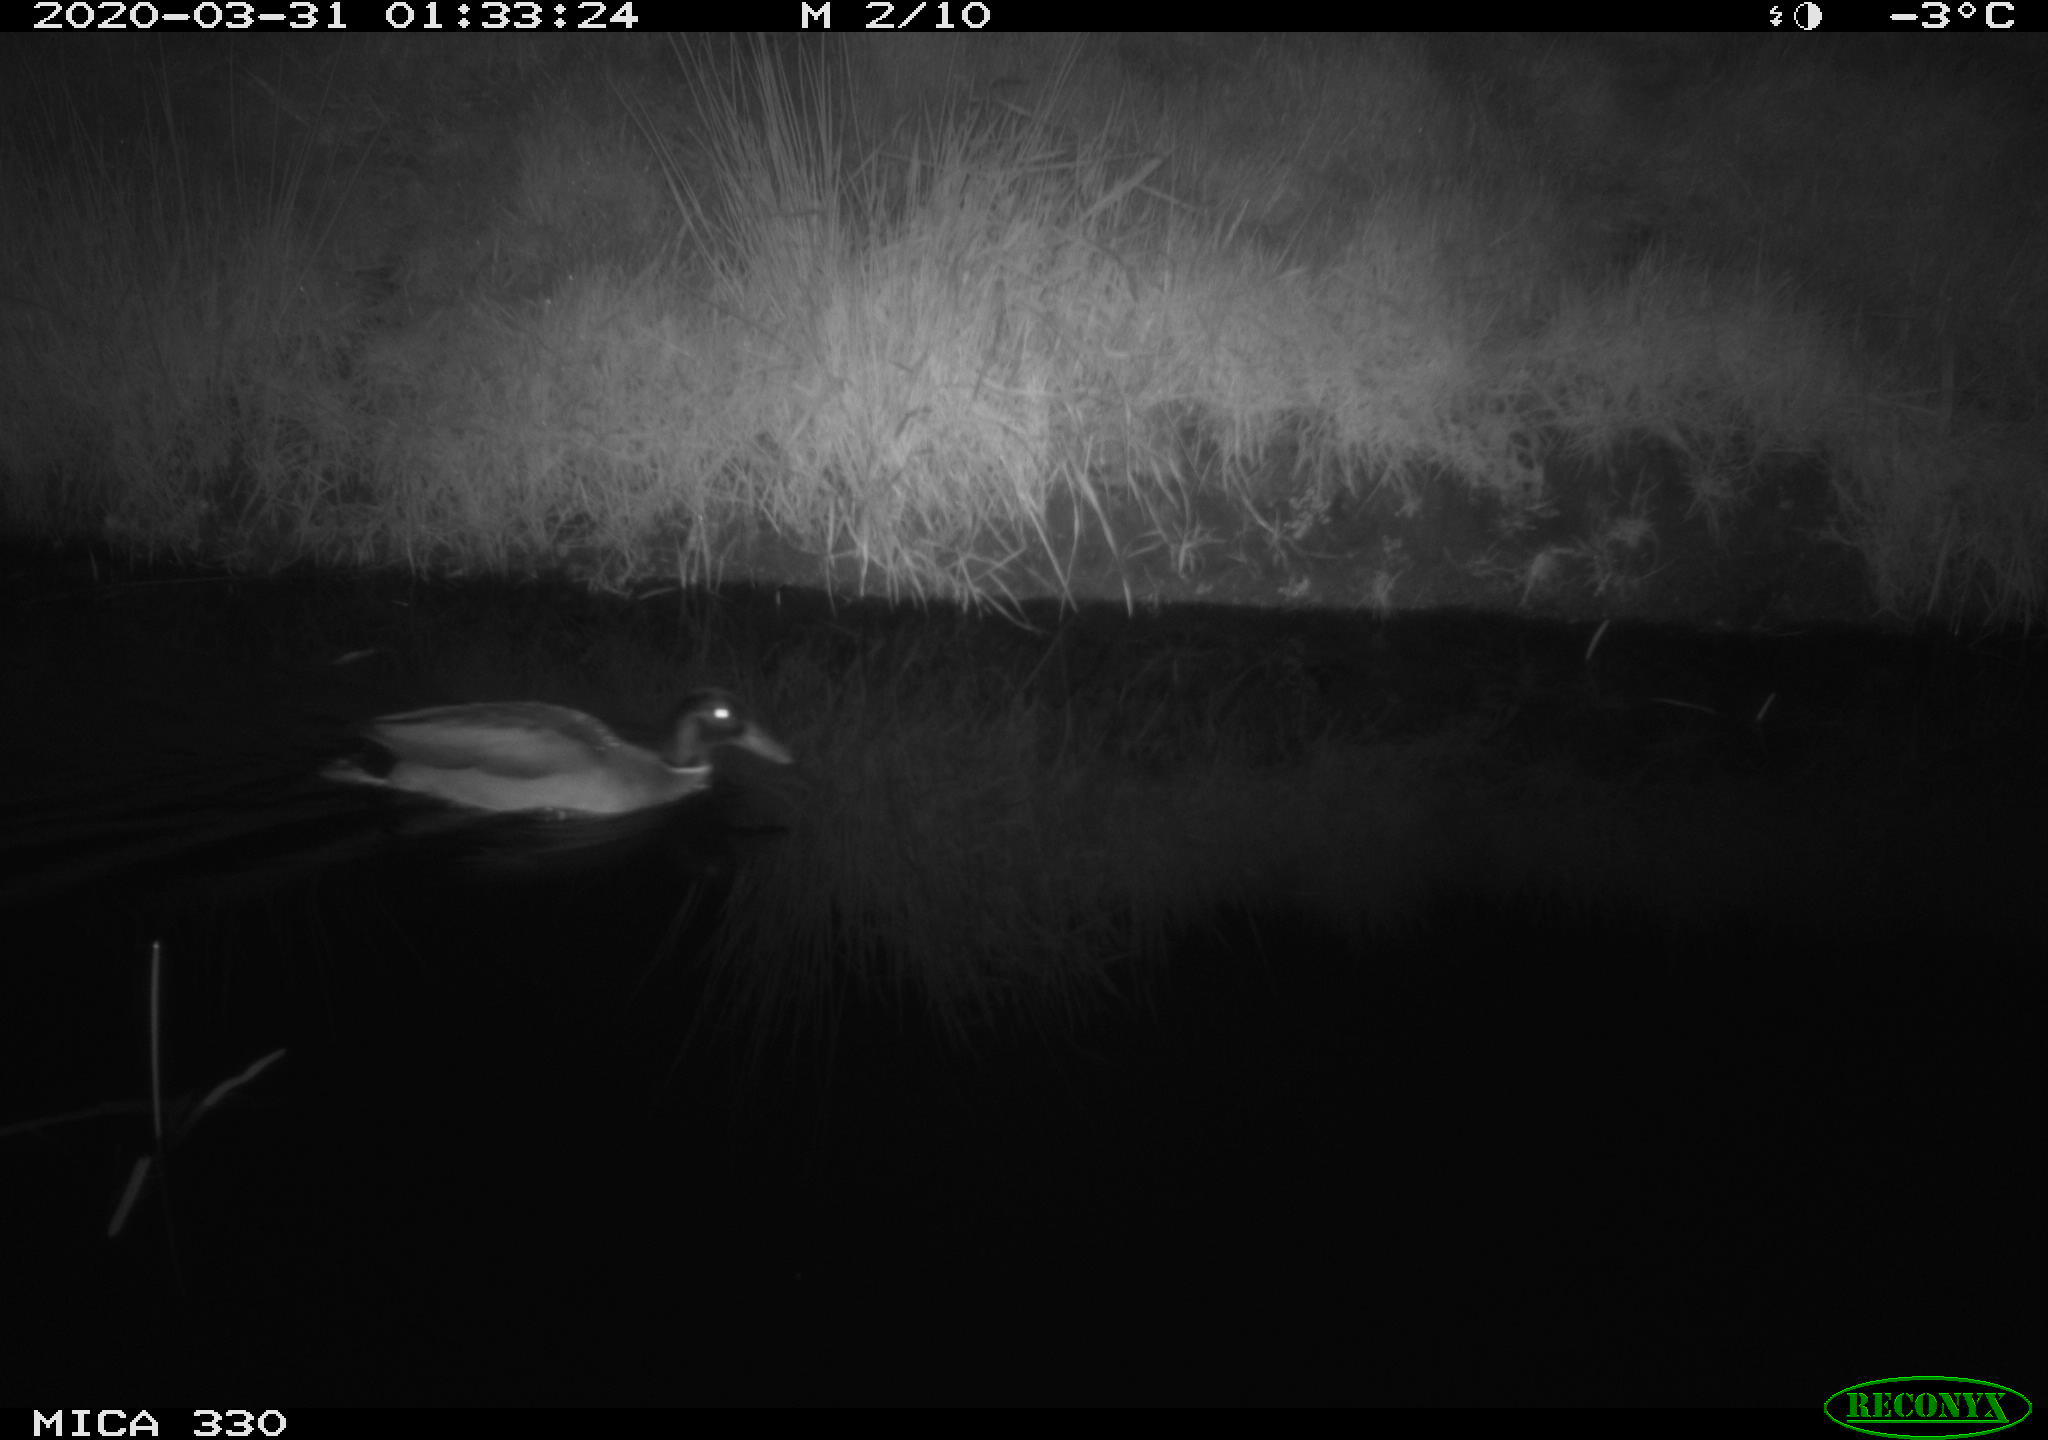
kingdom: Animalia
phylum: Chordata
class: Aves
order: Anseriformes
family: Anatidae
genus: Anas
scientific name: Anas platyrhynchos
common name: Mallard
